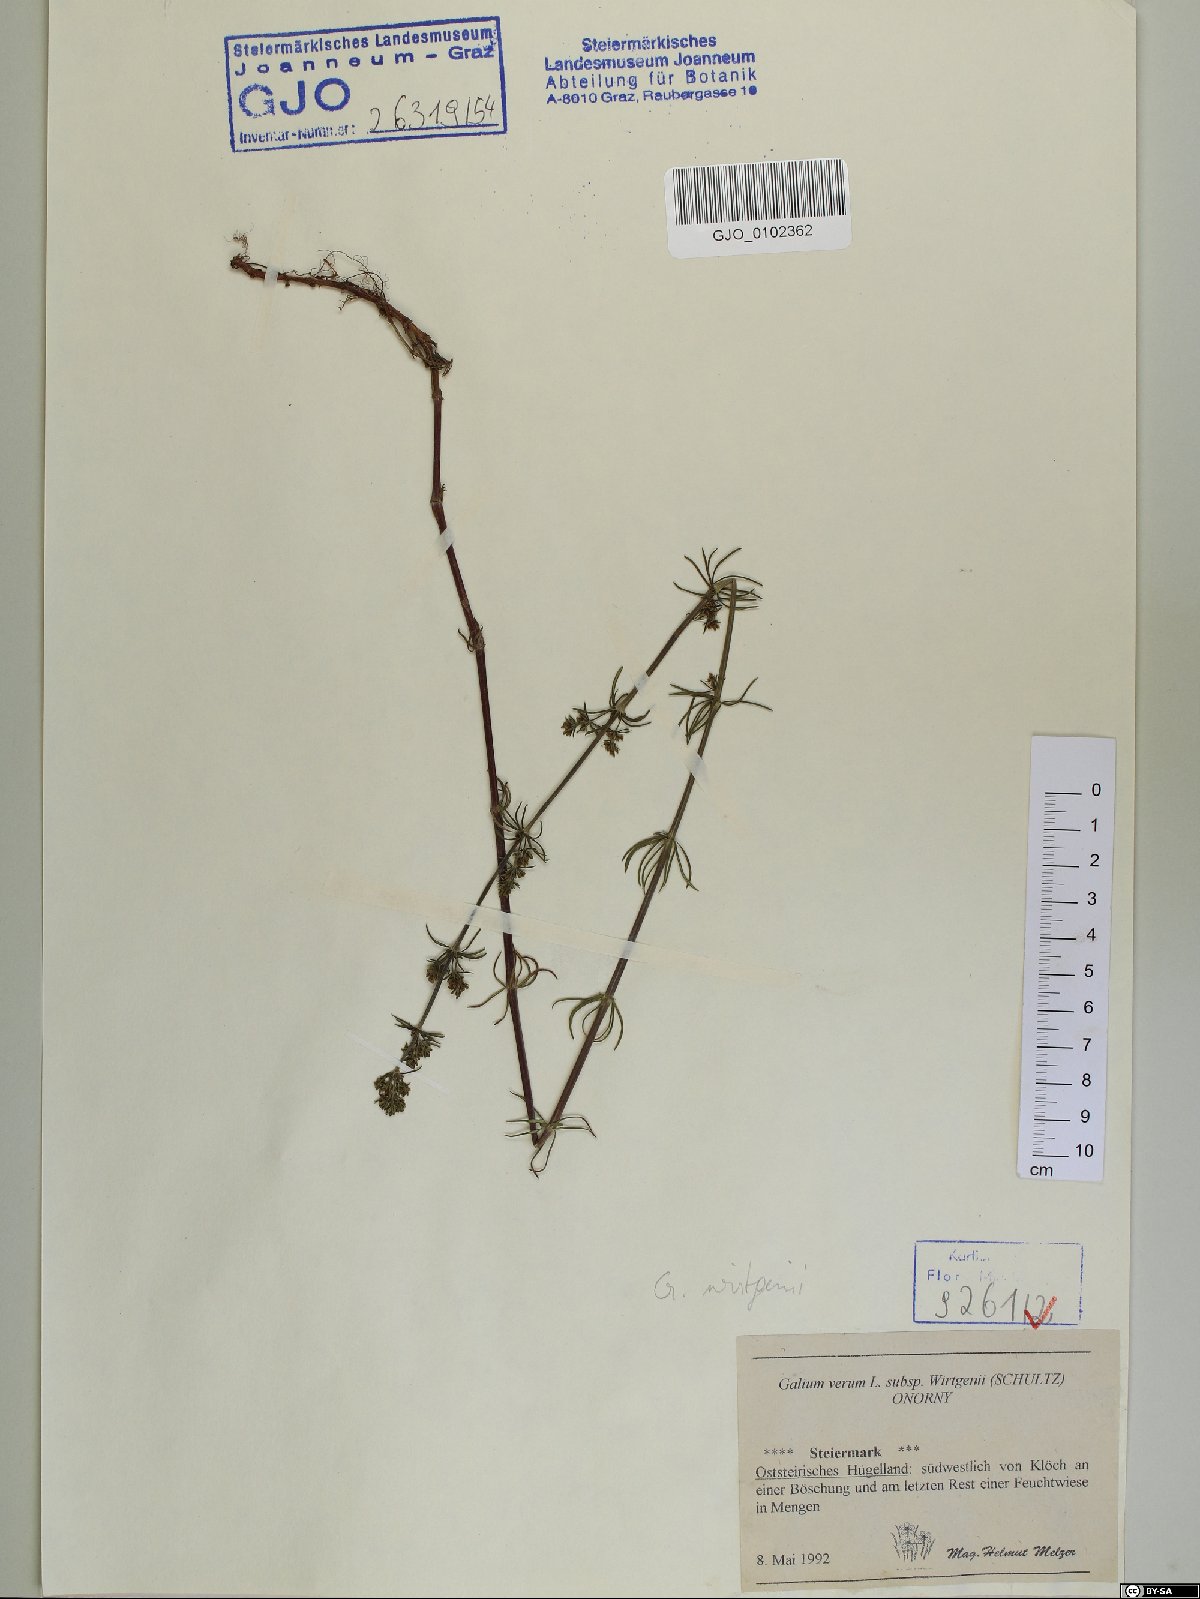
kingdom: Plantae
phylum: Tracheophyta
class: Magnoliopsida
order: Gentianales
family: Rubiaceae
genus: Galium
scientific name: Galium verum
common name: Lady's bedstraw
